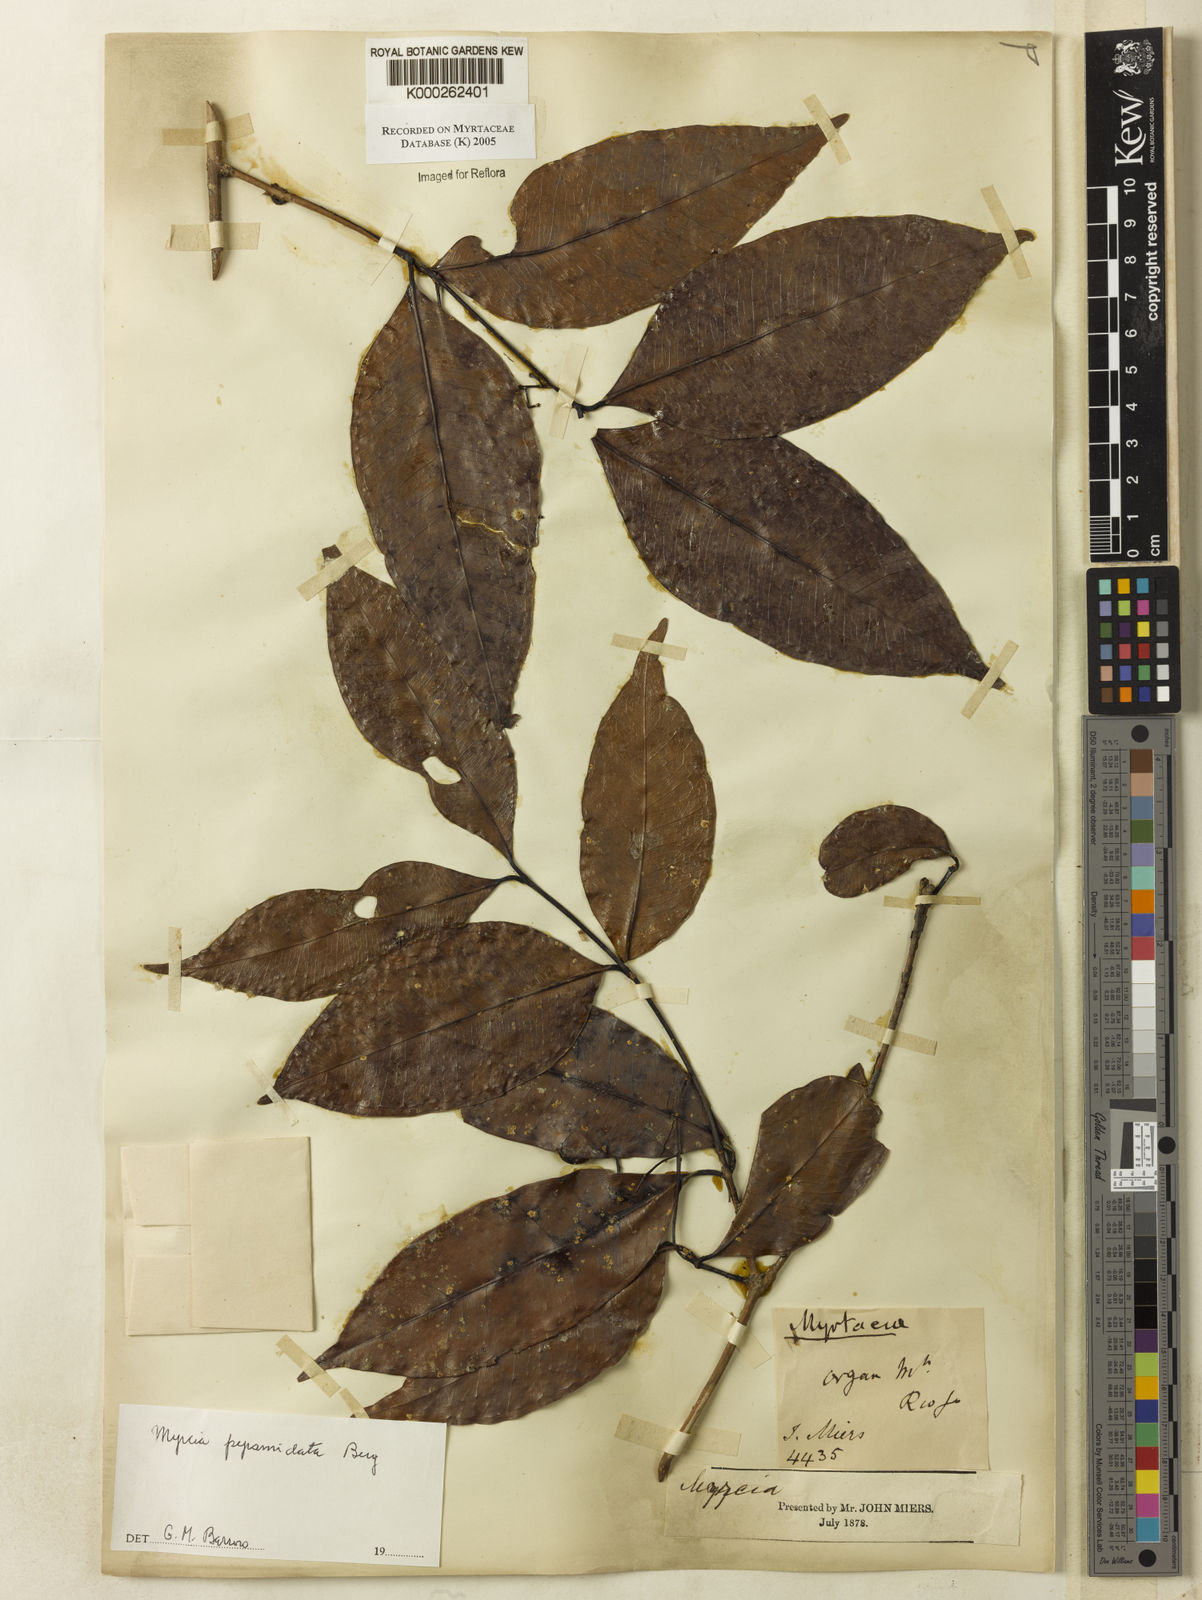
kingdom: Plantae
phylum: Tracheophyta
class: Magnoliopsida
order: Myrtales
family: Myrtaceae
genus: Myrcia
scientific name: Myrcia rubiginosa
